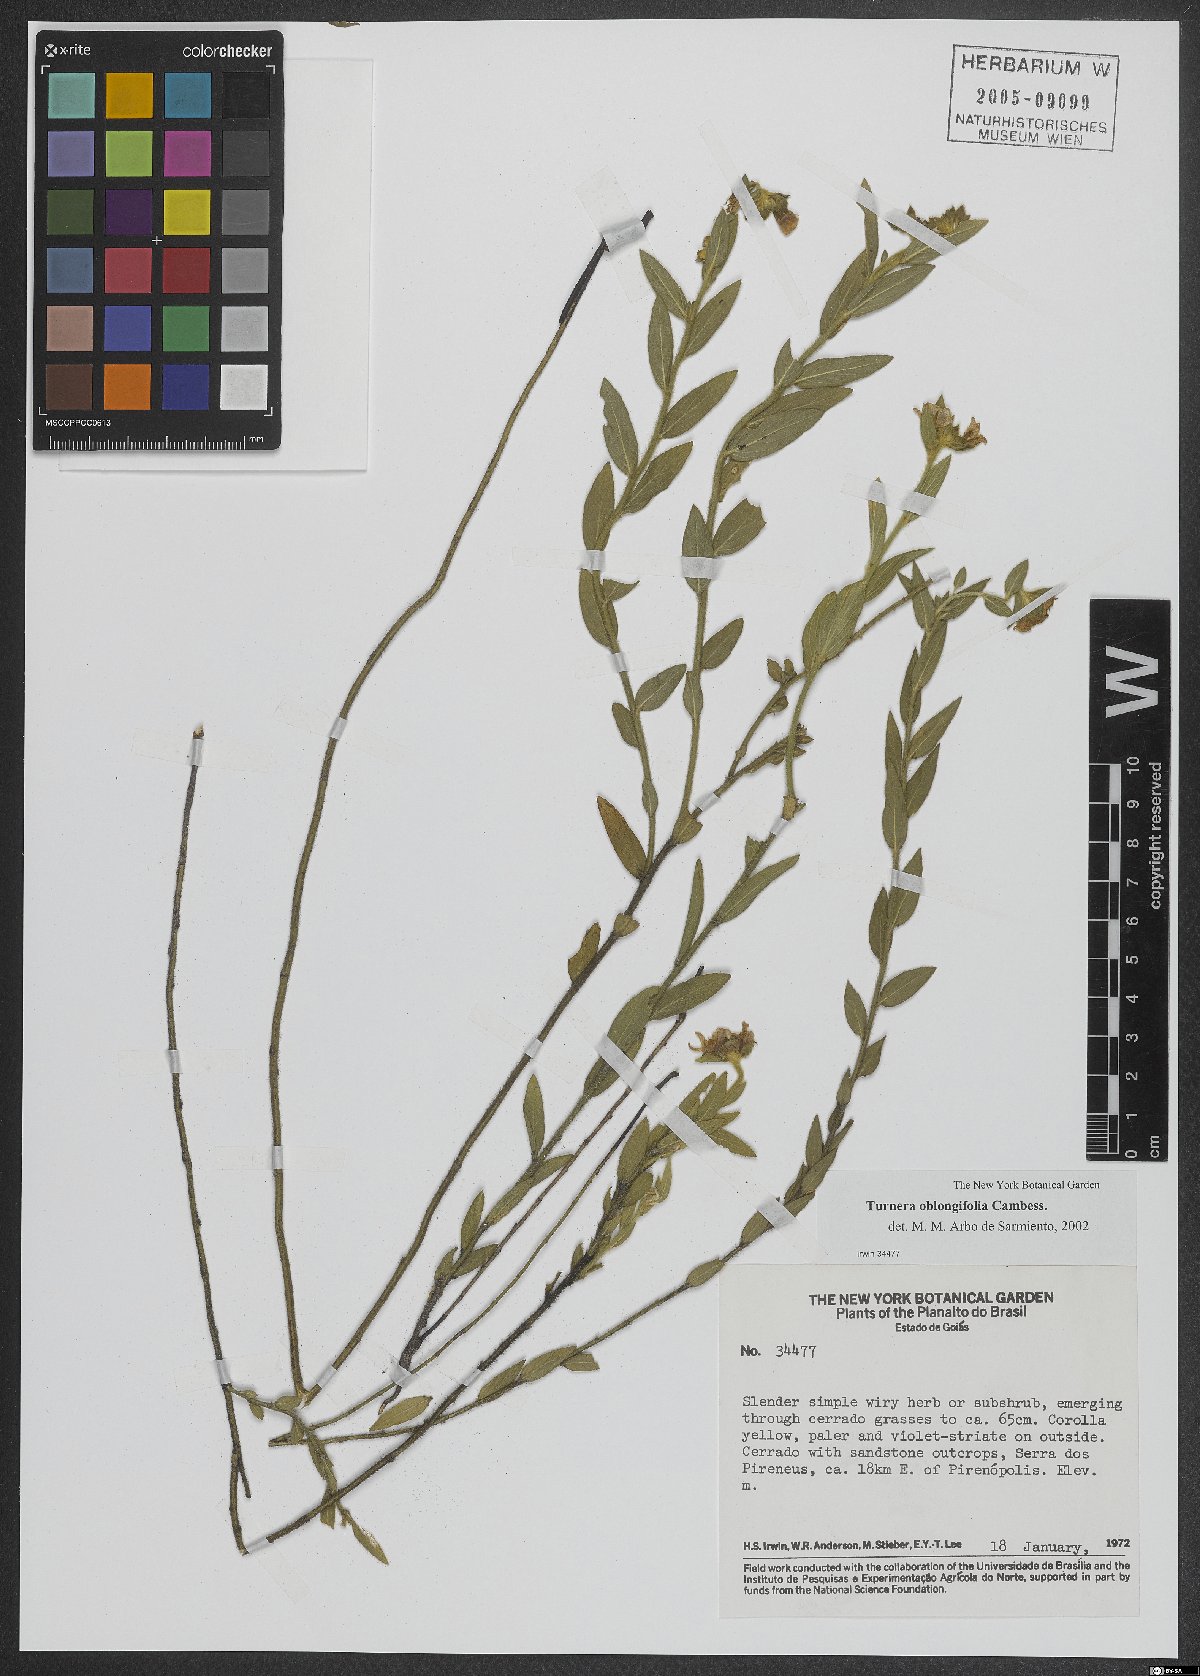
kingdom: Plantae
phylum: Tracheophyta
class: Magnoliopsida
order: Malpighiales
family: Turneraceae
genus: Turnera
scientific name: Turnera oblongifolia
